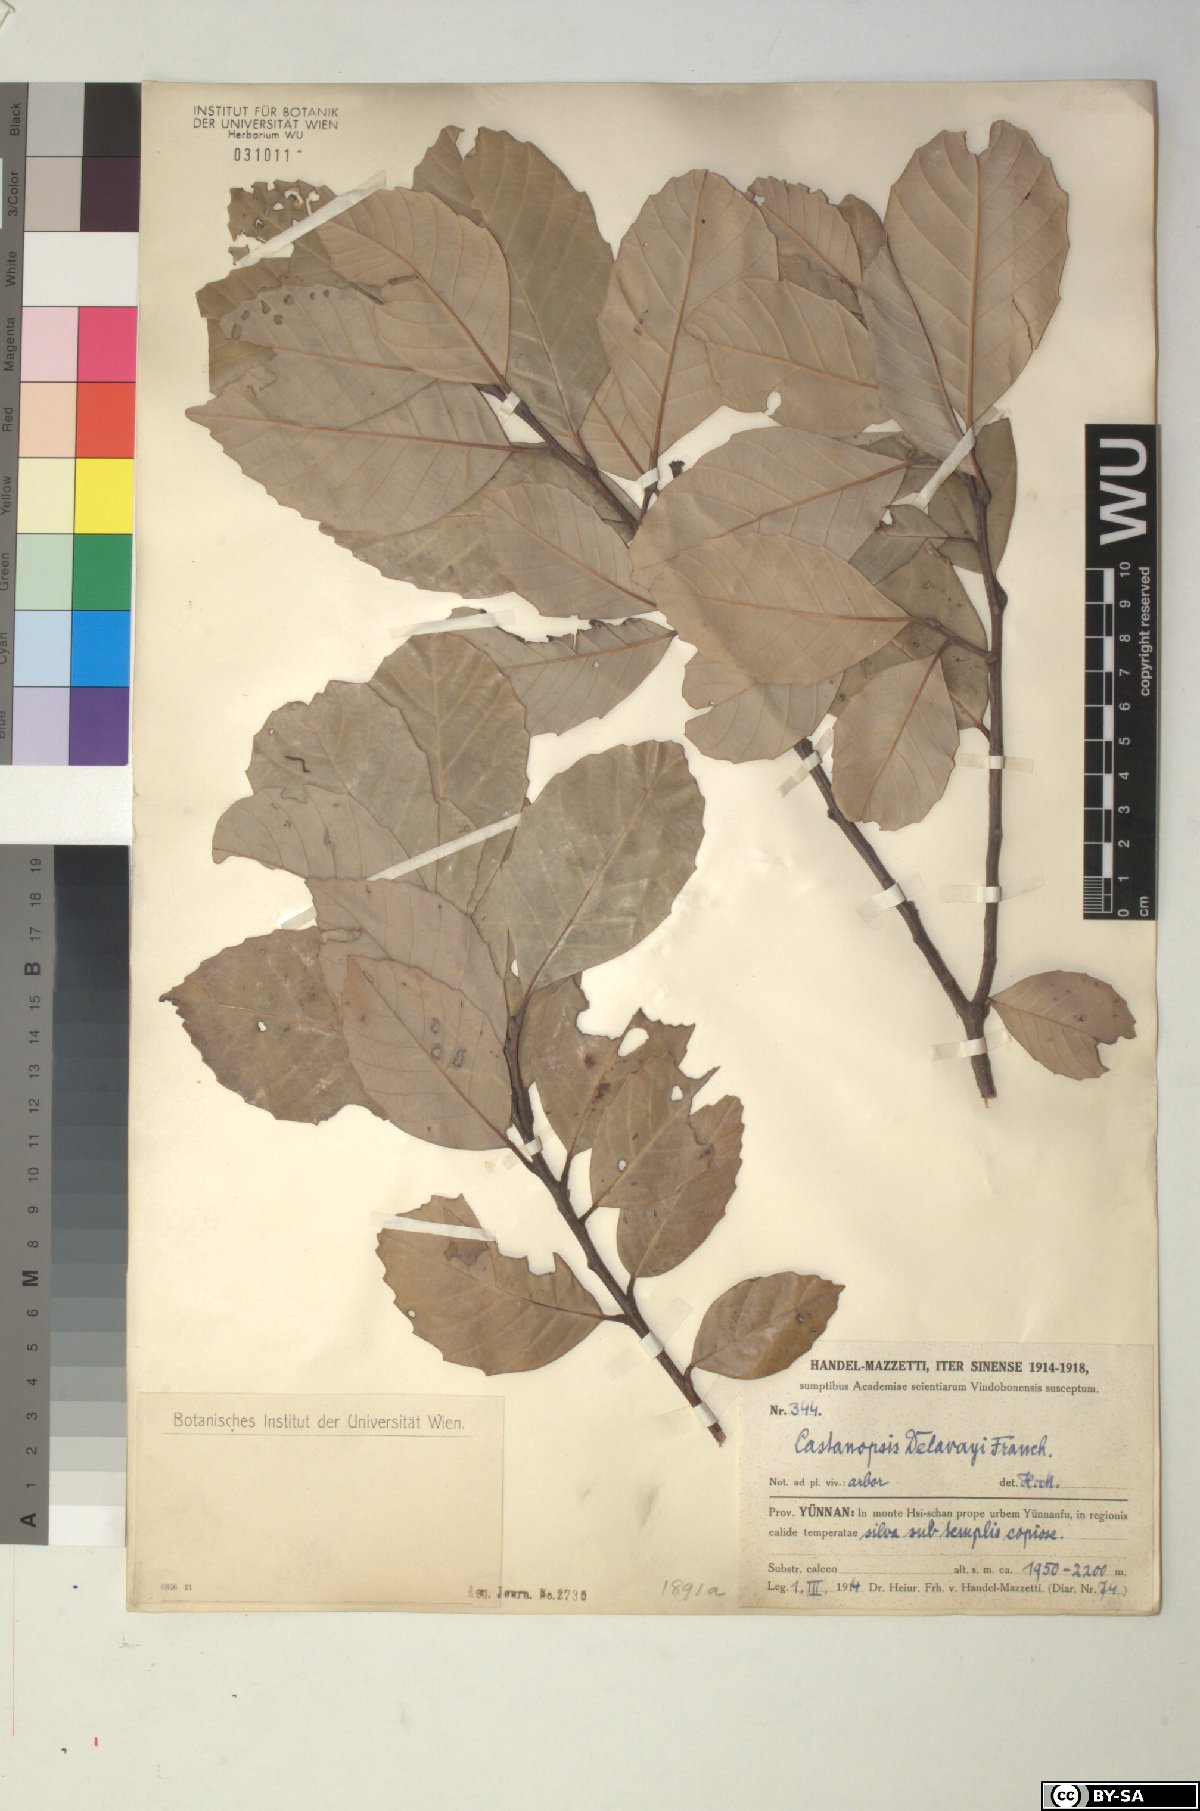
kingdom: Plantae
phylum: Tracheophyta
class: Magnoliopsida
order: Fagales
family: Fagaceae
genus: Castanopsis
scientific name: Castanopsis delavayi
